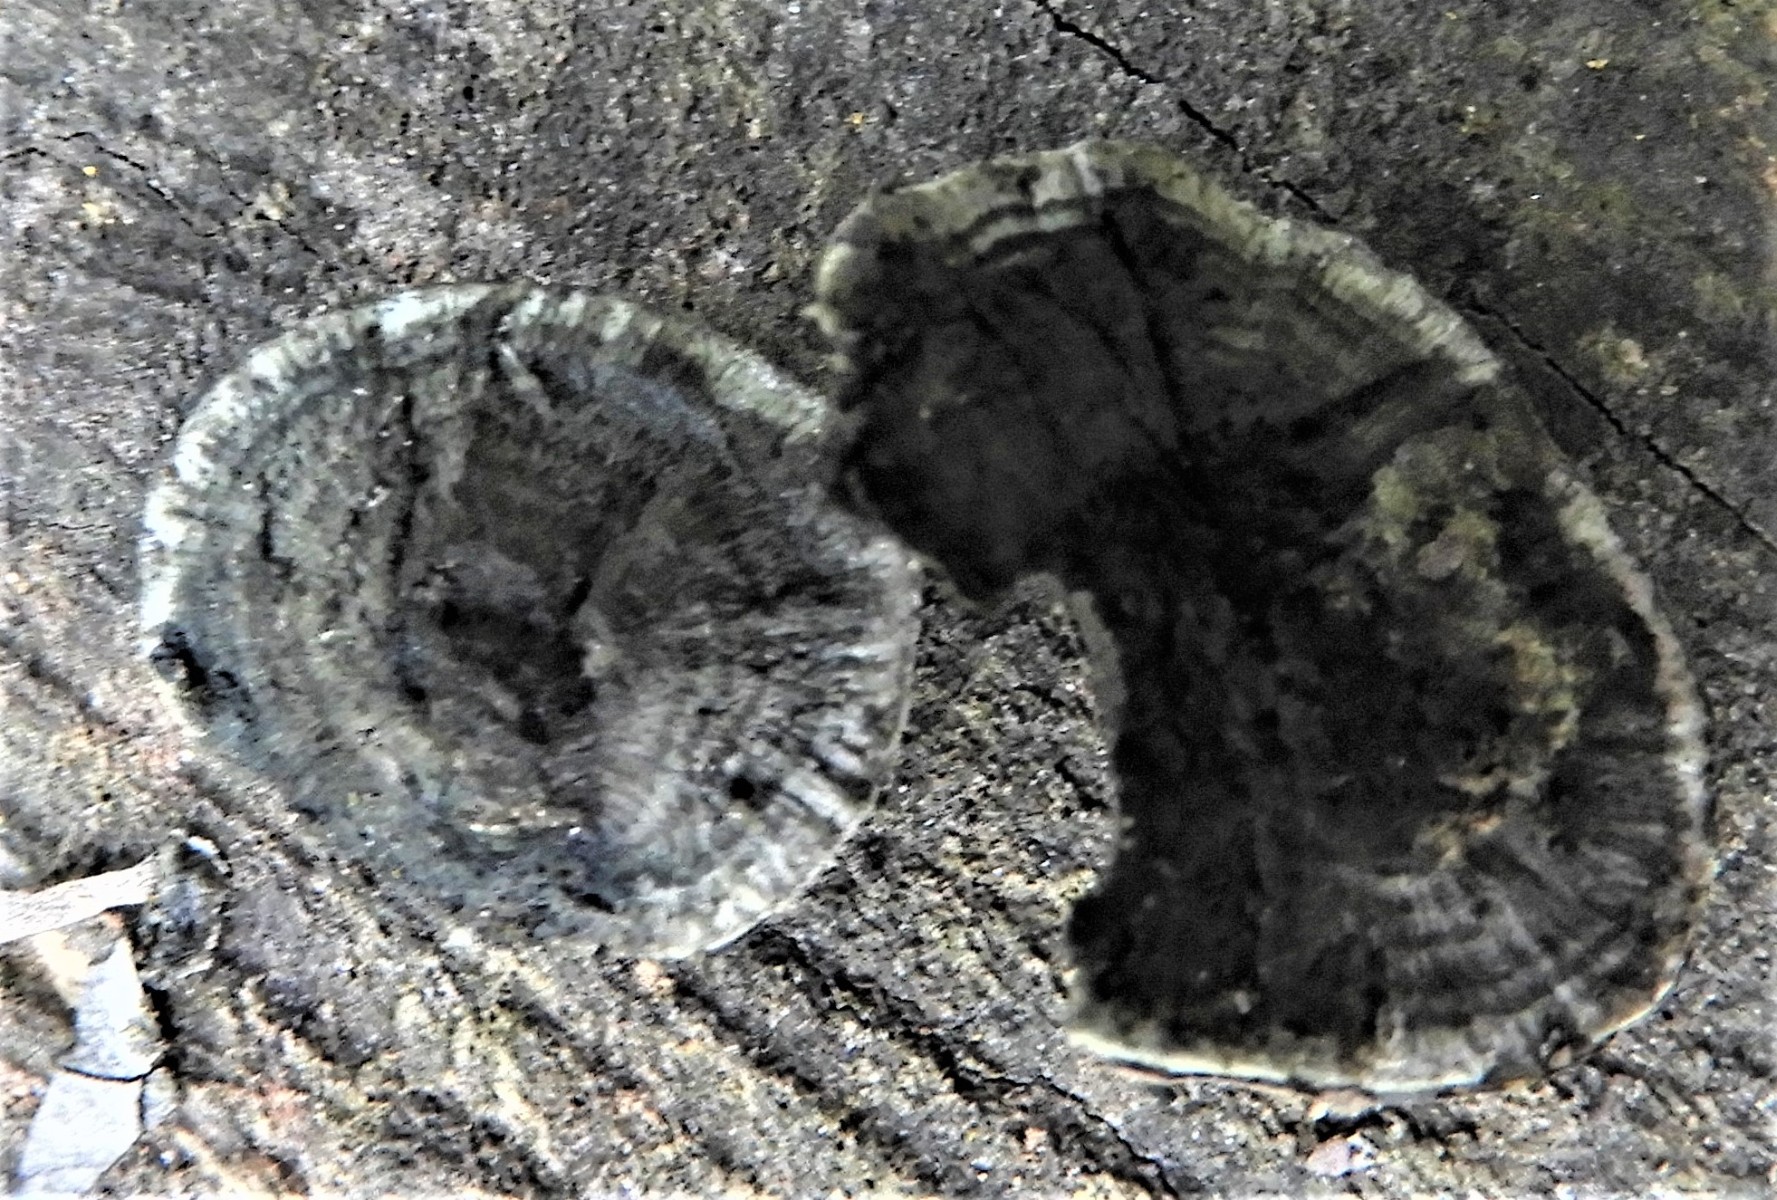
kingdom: Fungi
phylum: Ascomycota
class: Sordariomycetes
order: Xylariales
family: Hypoxylaceae
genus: Daldinia
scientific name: Daldinia concentrica
